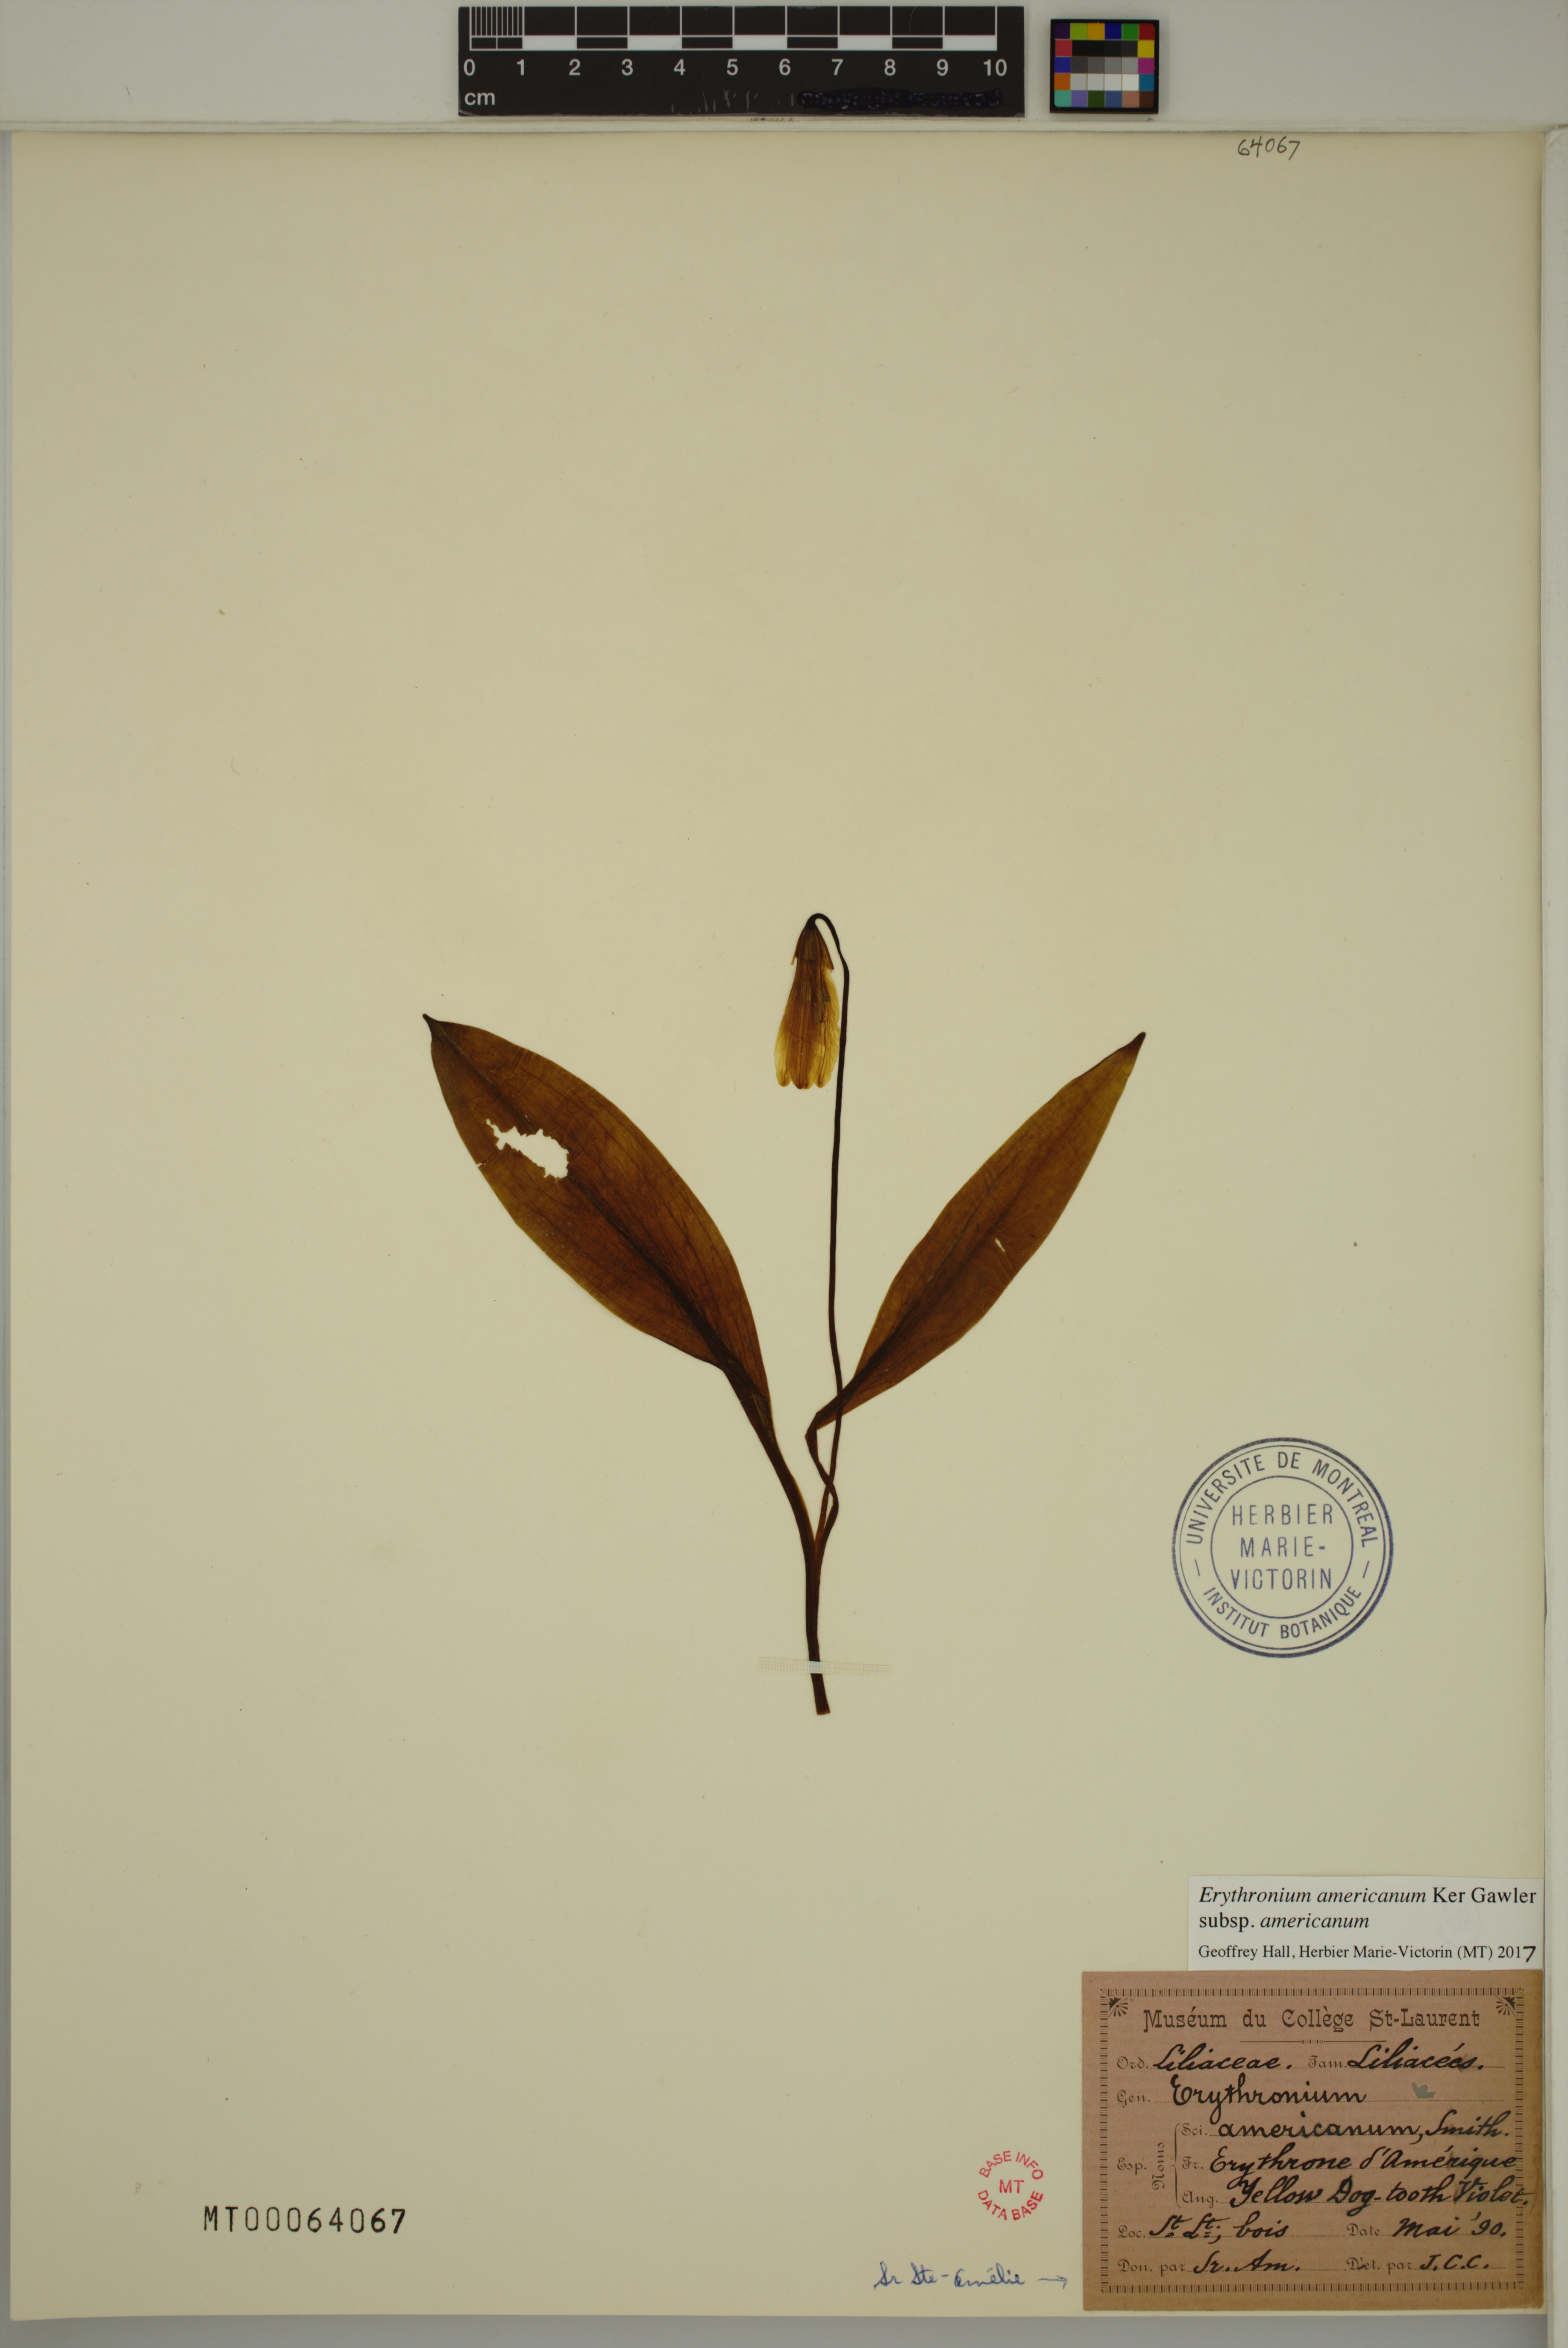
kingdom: Plantae
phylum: Tracheophyta
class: Liliopsida
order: Liliales
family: Liliaceae
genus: Erythronium
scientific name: Erythronium americanum
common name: Yellow adder's-tongue
